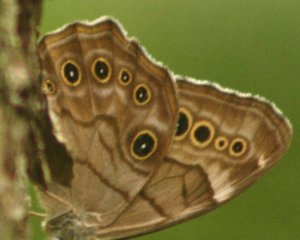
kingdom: Animalia
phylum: Arthropoda
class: Insecta
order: Lepidoptera
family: Nymphalidae
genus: Lethe
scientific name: Lethe anthedon
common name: Northern Pearly-Eye
